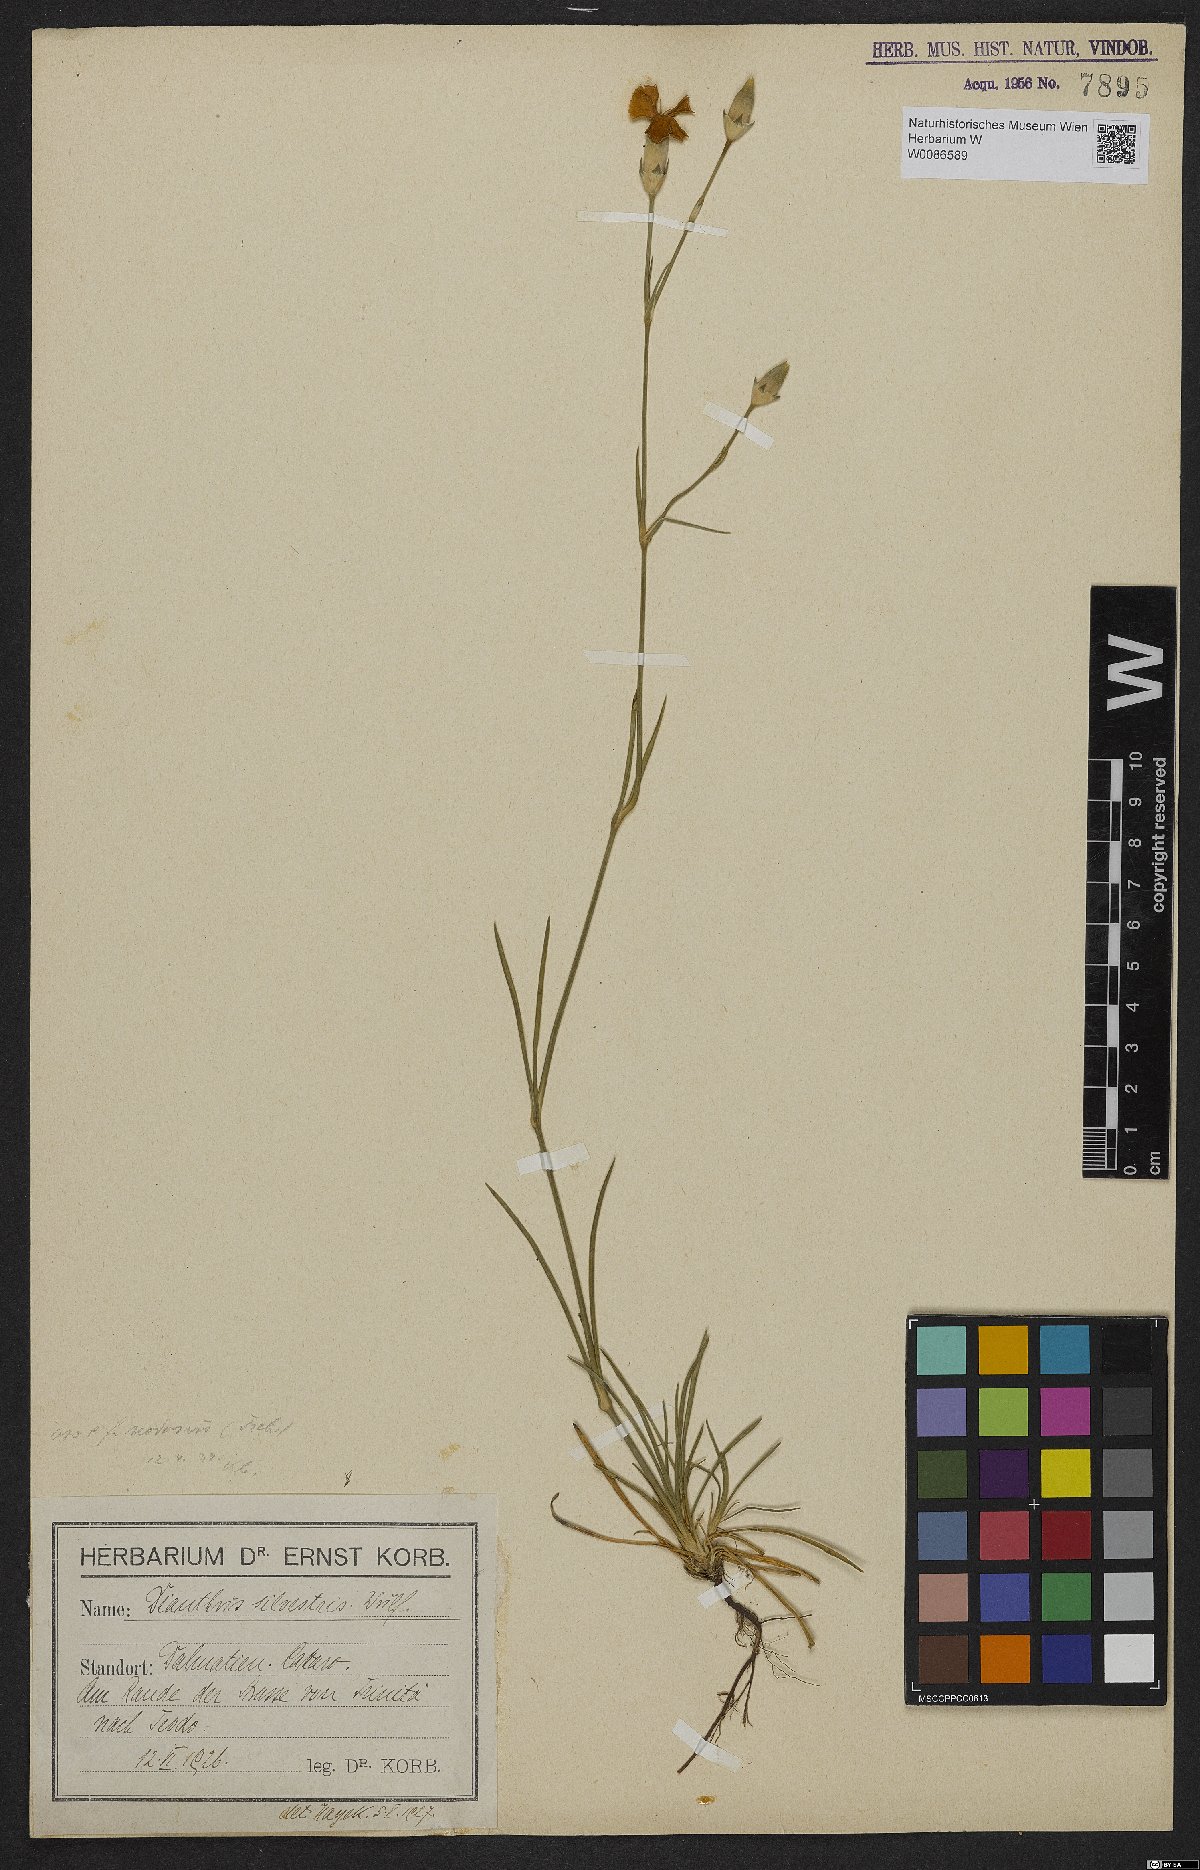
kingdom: Plantae
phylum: Tracheophyta
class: Magnoliopsida
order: Caryophyllales
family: Caryophyllaceae
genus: Dianthus
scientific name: Dianthus sylvestris
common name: Wood pink
